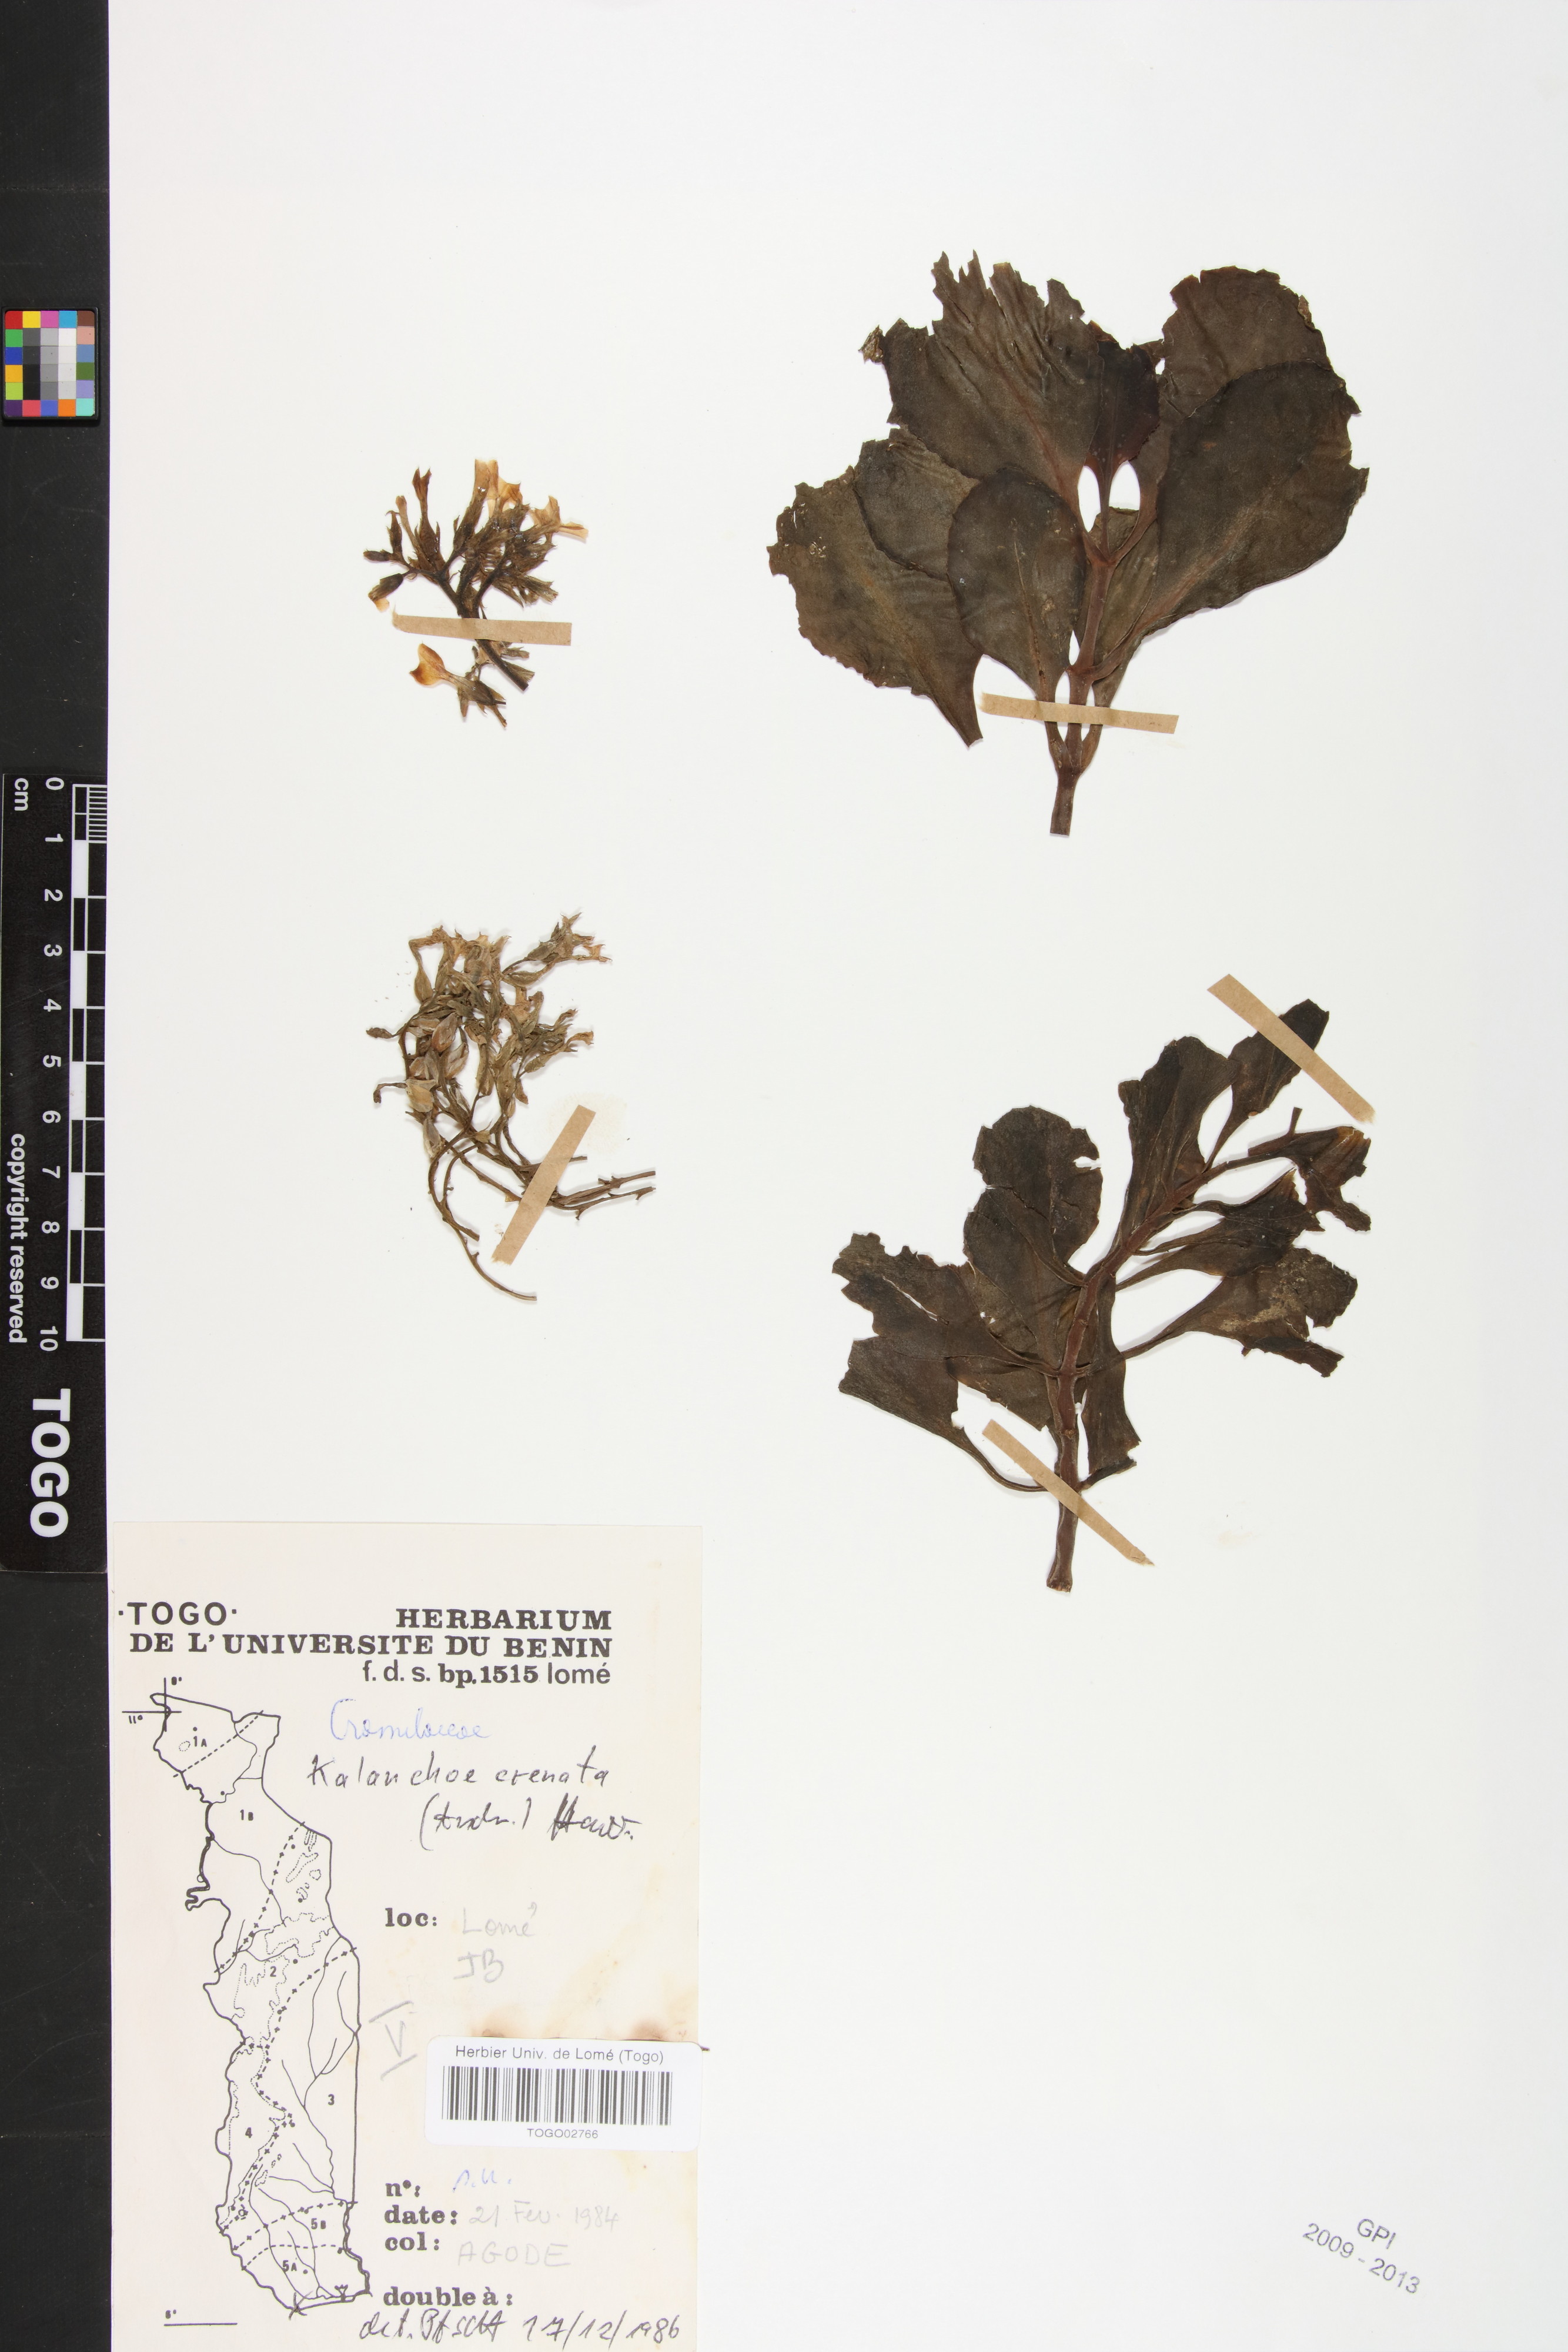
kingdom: Plantae
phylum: Tracheophyta
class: Magnoliopsida
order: Saxifragales
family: Crassulaceae
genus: Kalanchoe
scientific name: Kalanchoe crenata
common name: Neverdie
